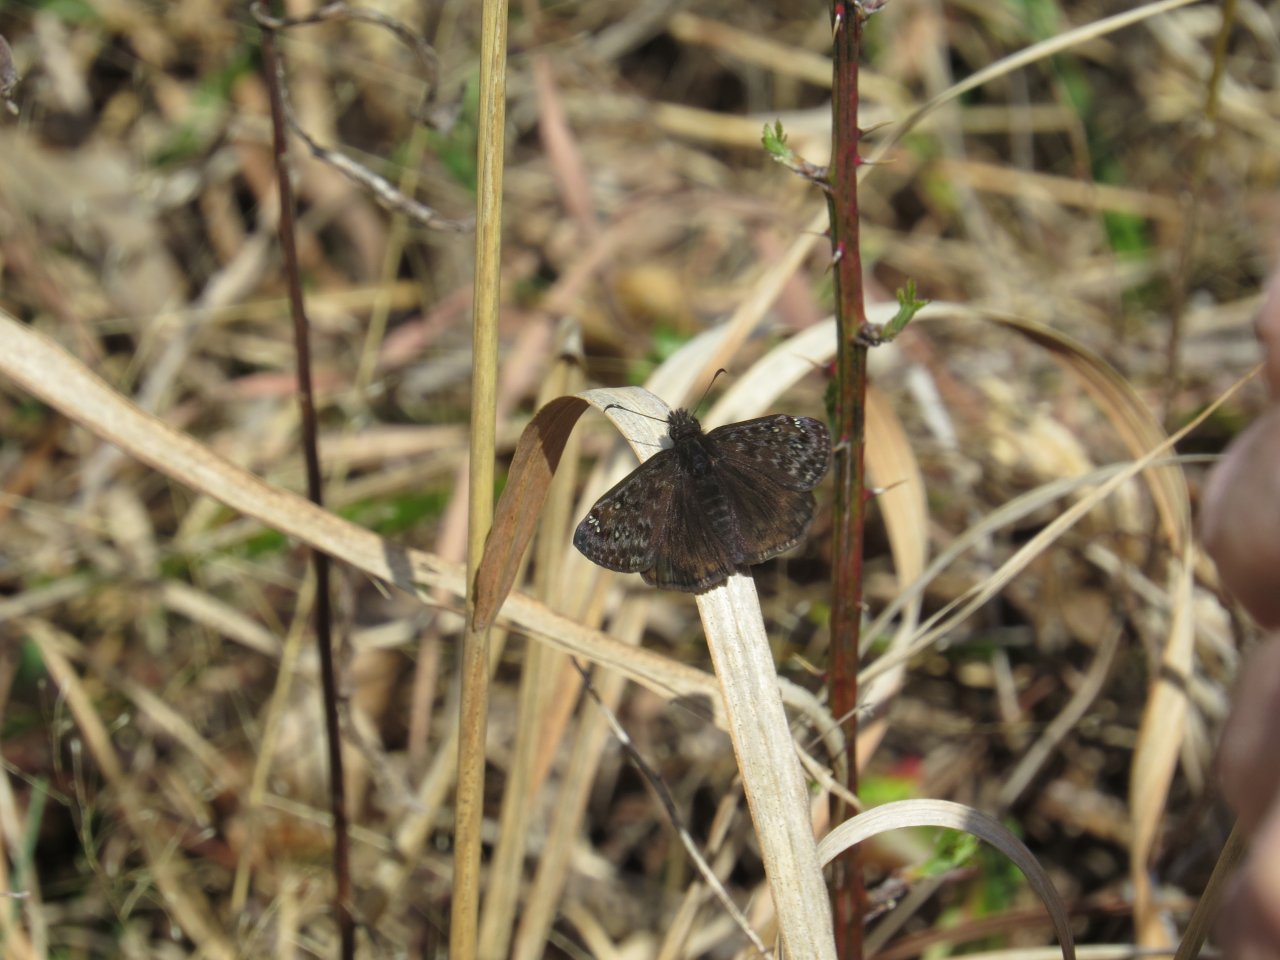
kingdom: Animalia
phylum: Arthropoda
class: Insecta
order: Lepidoptera
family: Hesperiidae
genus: Gesta
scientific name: Gesta
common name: Juvenal's Duskywing
